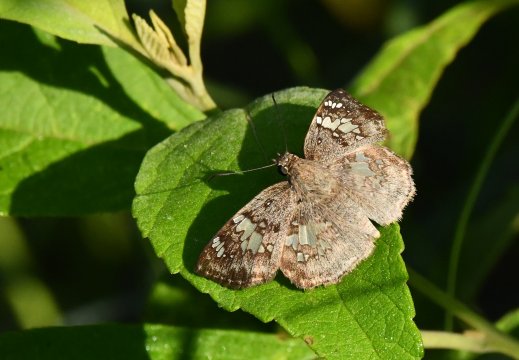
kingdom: Animalia
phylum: Arthropoda
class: Insecta
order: Lepidoptera
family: Hesperiidae
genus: Xenophanes
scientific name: Xenophanes tryxus
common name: Glassy-winged Skipper
